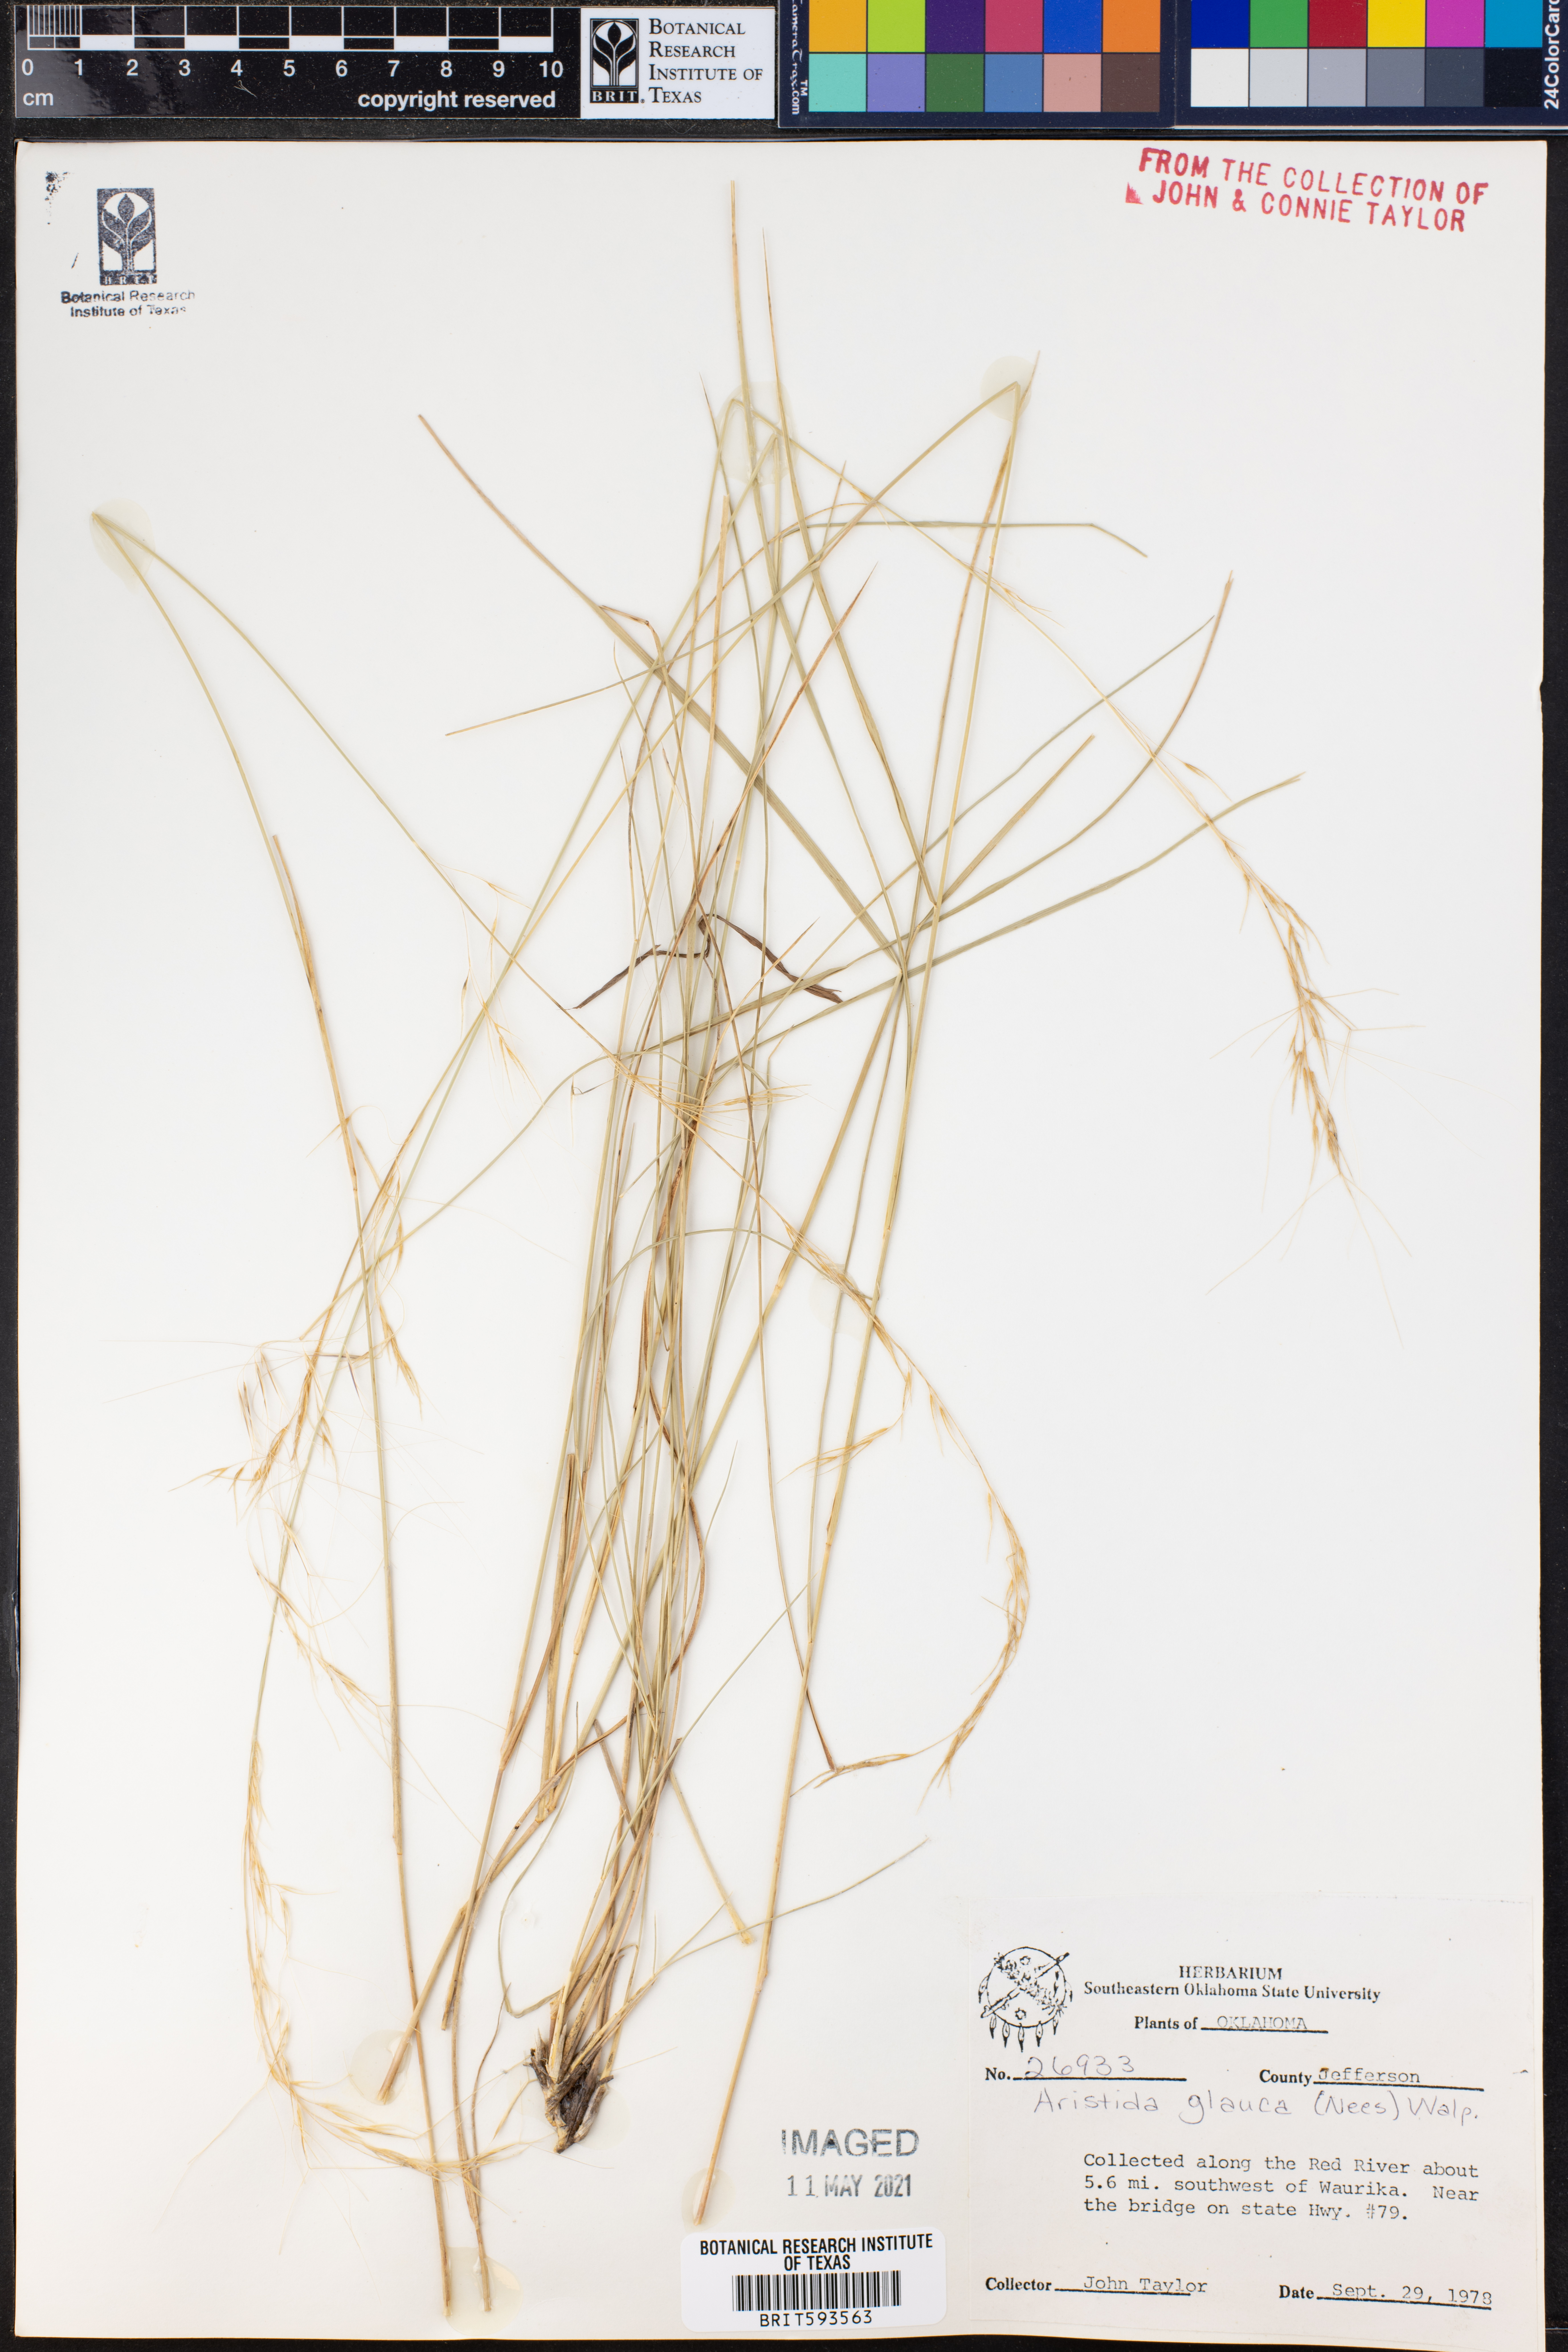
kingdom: Plantae
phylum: Tracheophyta
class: Liliopsida
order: Poales
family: Poaceae
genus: Aristida
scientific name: Aristida glauca
